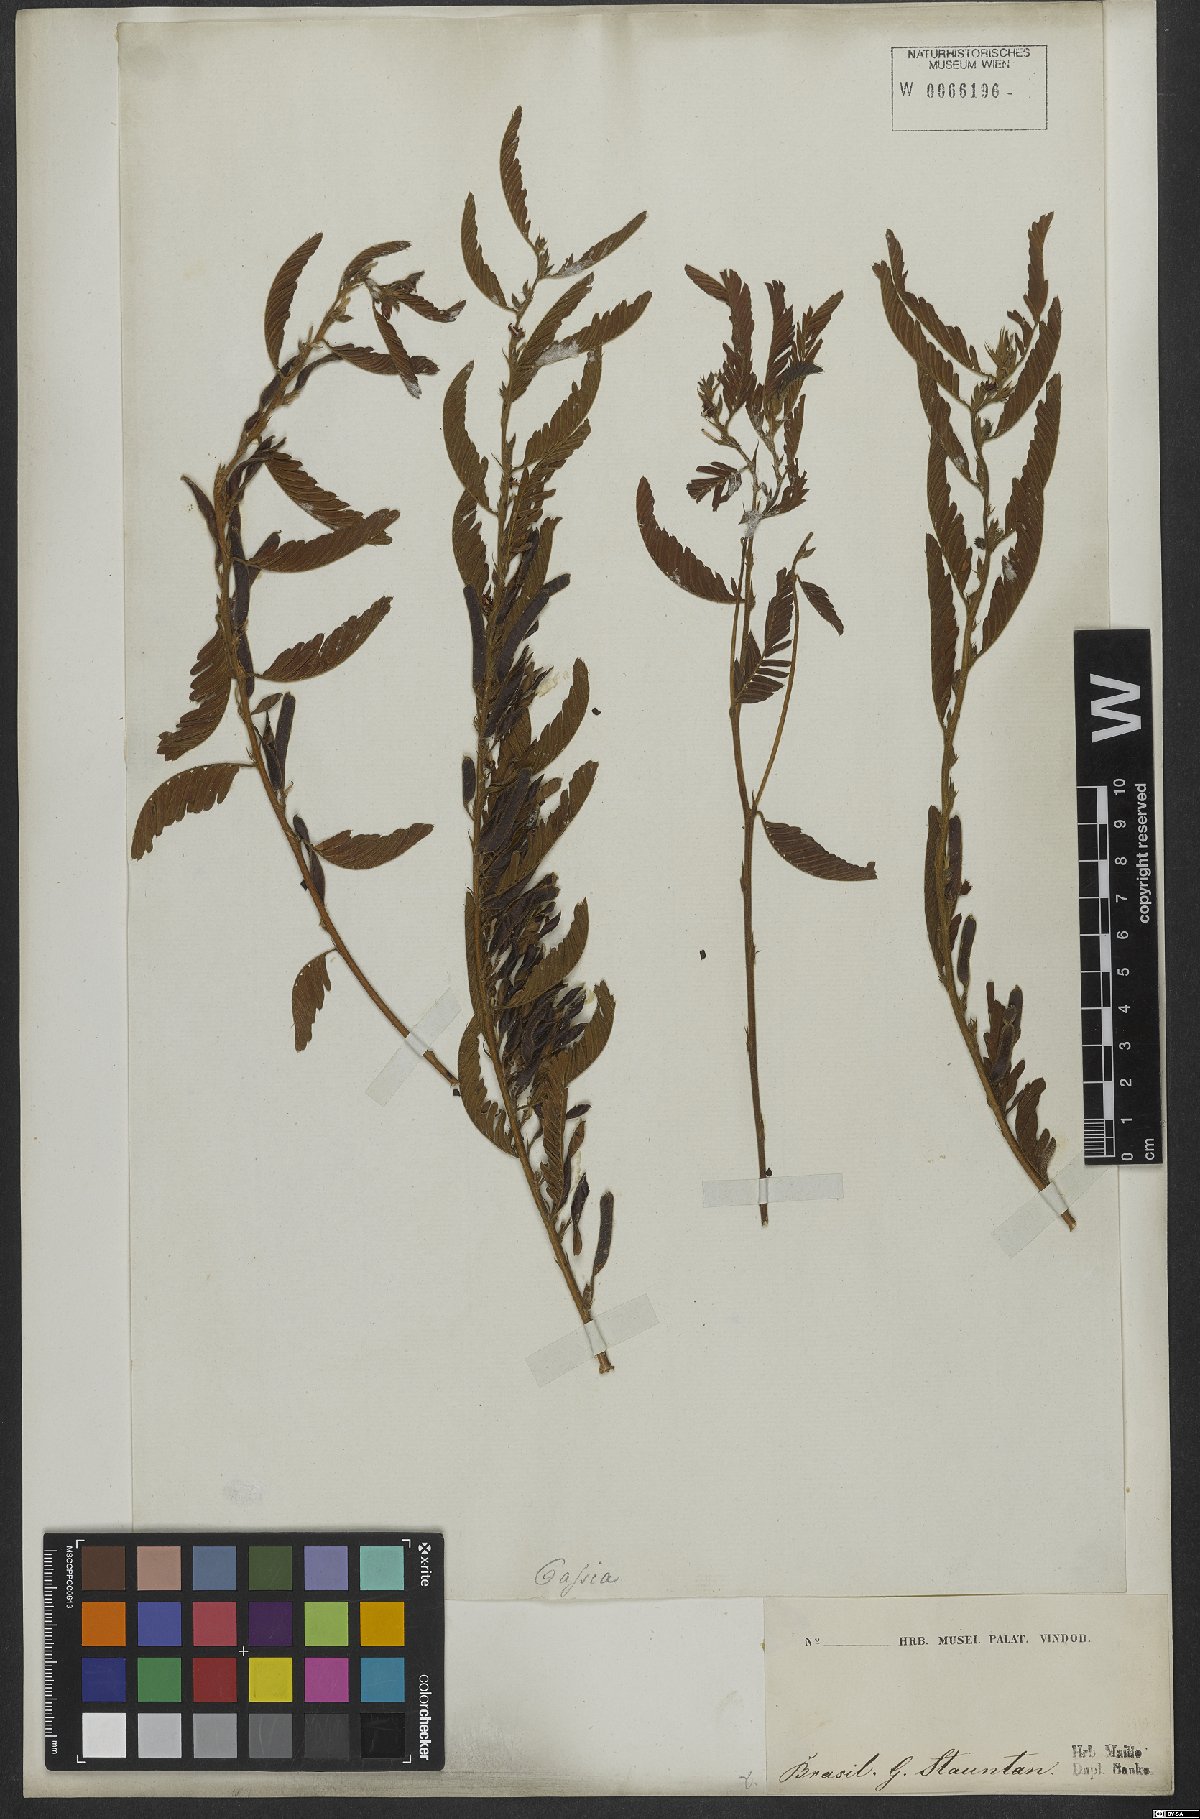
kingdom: Plantae
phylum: Tracheophyta
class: Magnoliopsida
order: Fabales
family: Fabaceae
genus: Chamaecrista
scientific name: Chamaecrista nictitans
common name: Sensitive cassia
